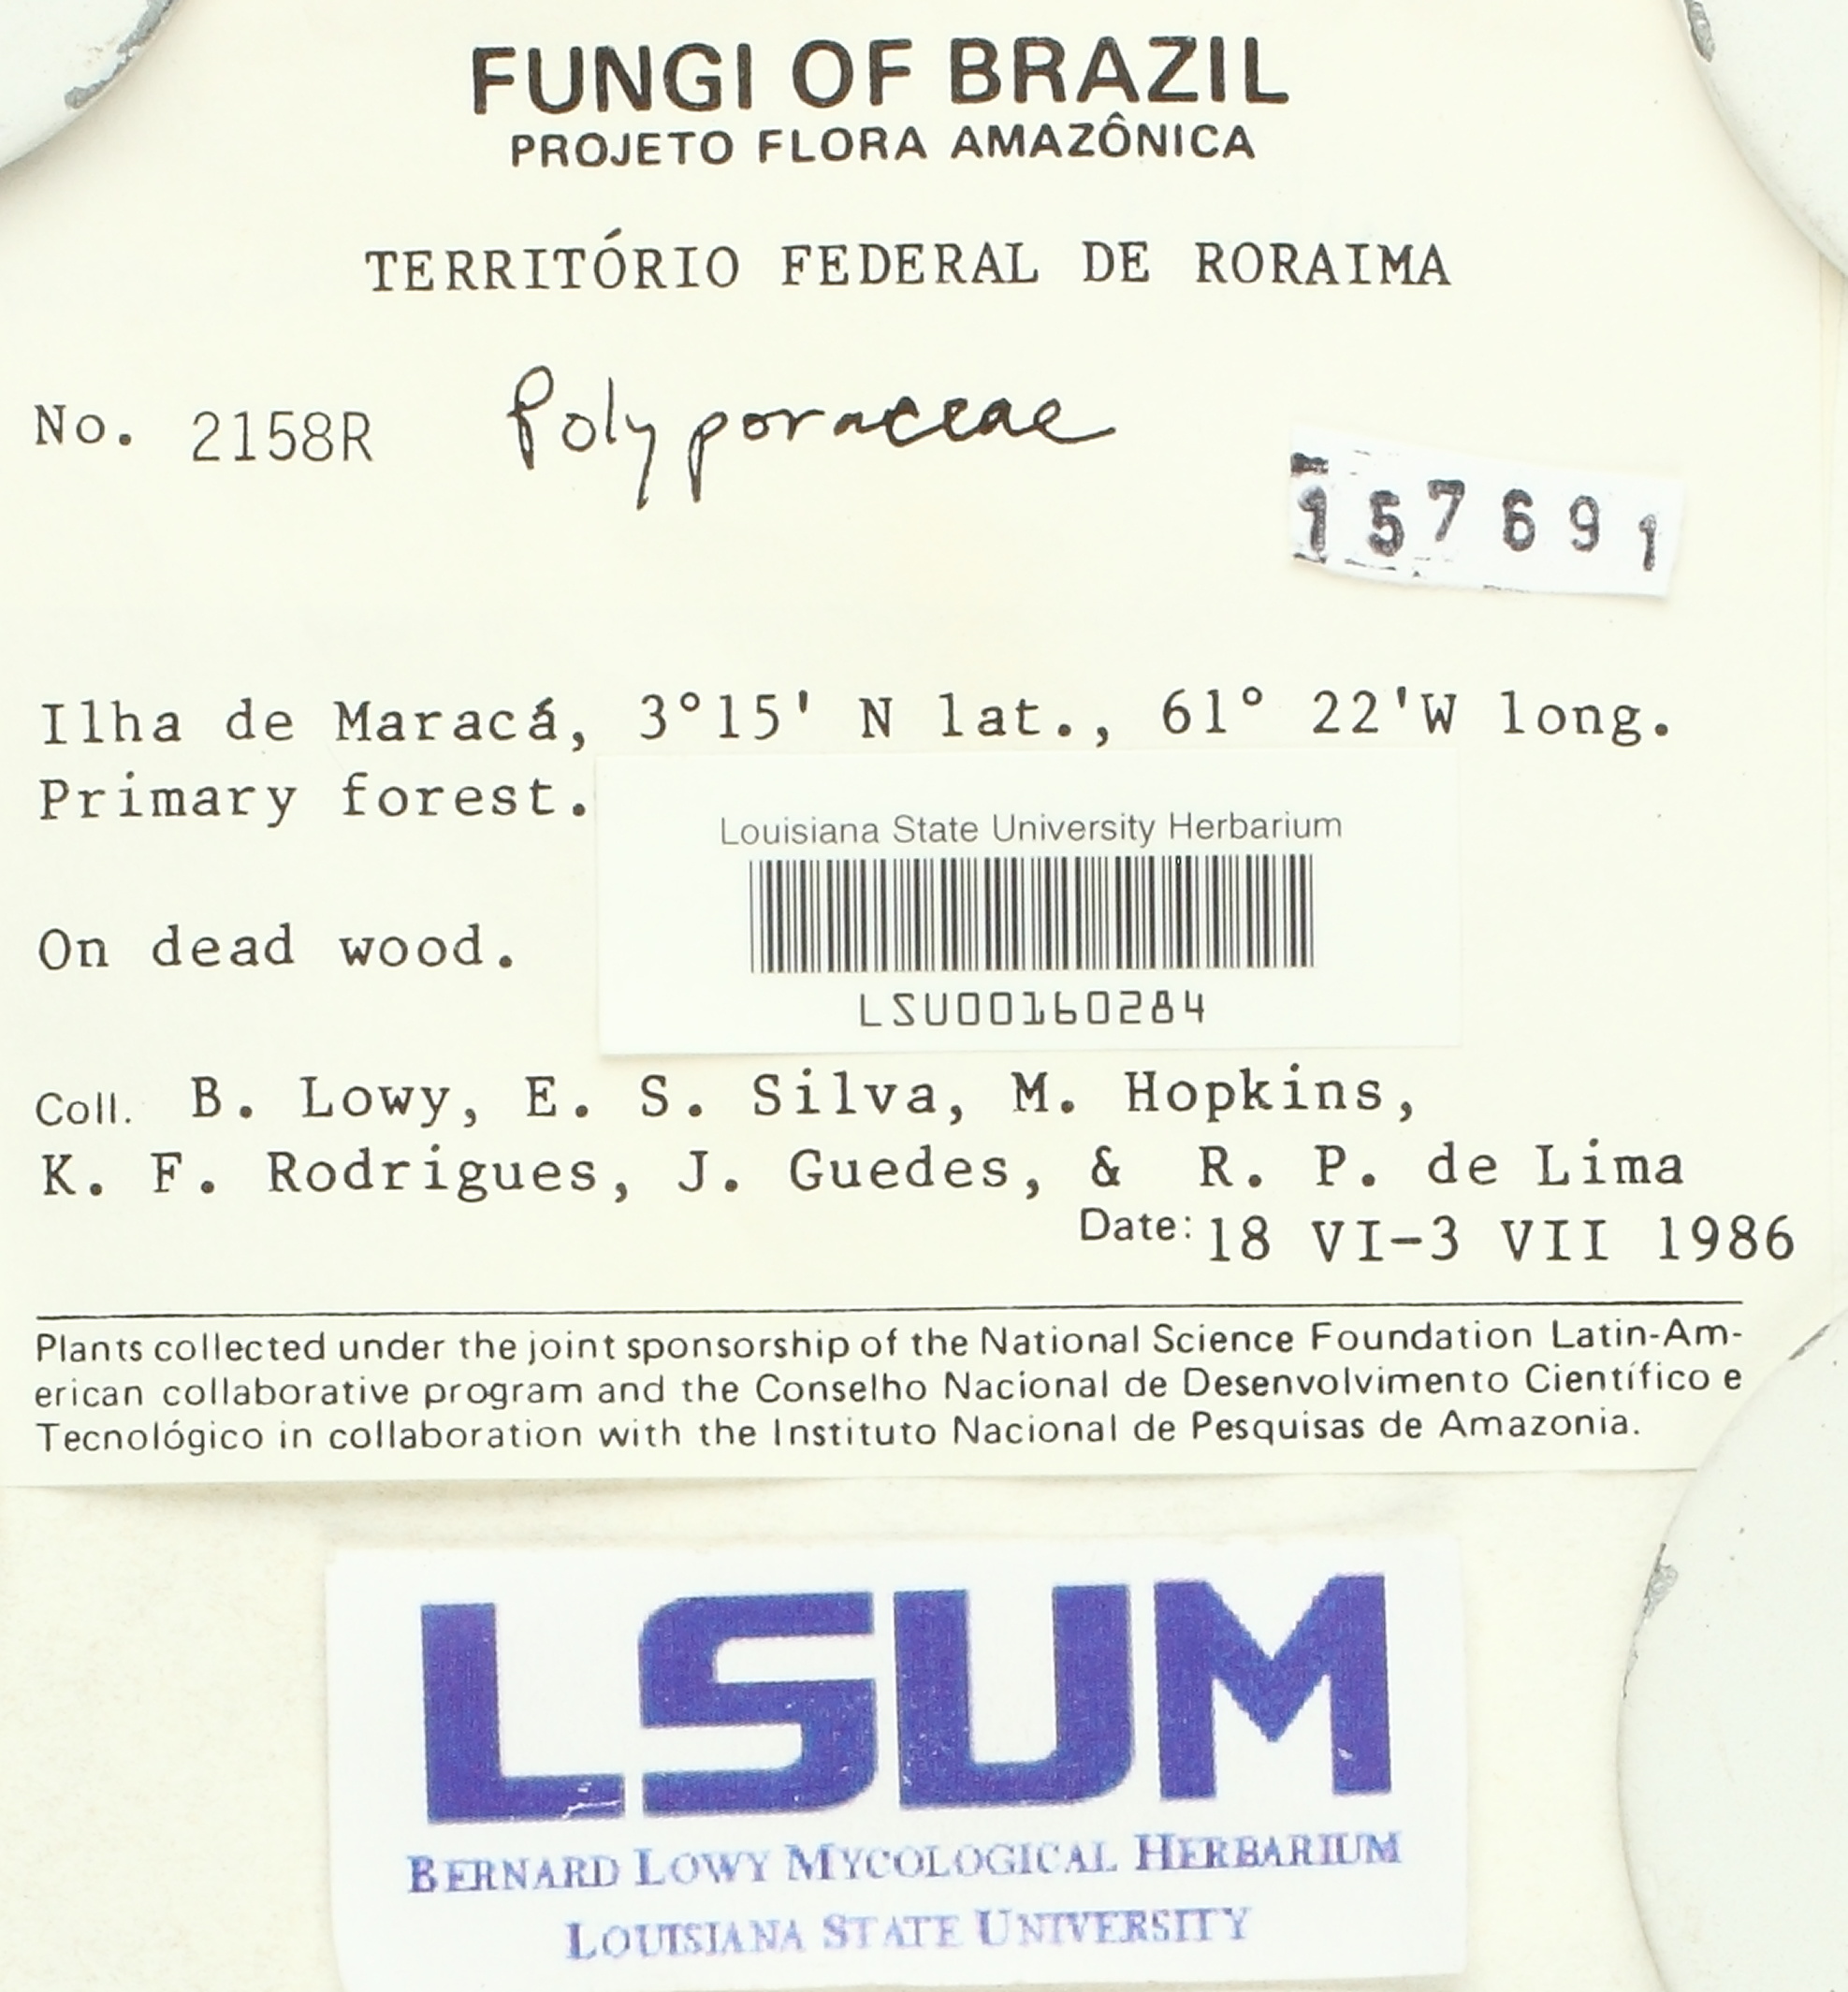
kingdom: Fungi
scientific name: Fungi
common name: Fungi
